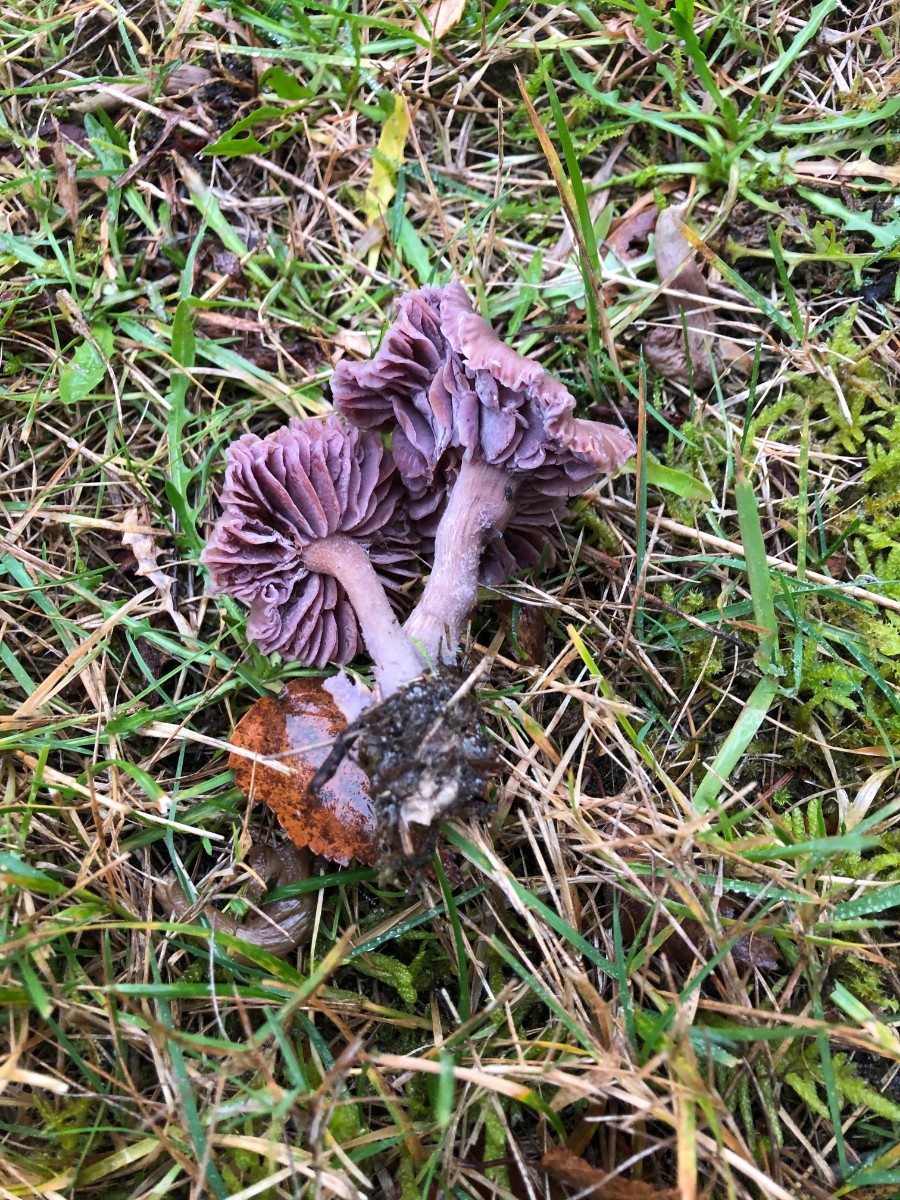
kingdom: Fungi
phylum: Basidiomycota
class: Agaricomycetes
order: Agaricales
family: Hydnangiaceae
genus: Laccaria
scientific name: Laccaria amethystina
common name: violet ametysthat
